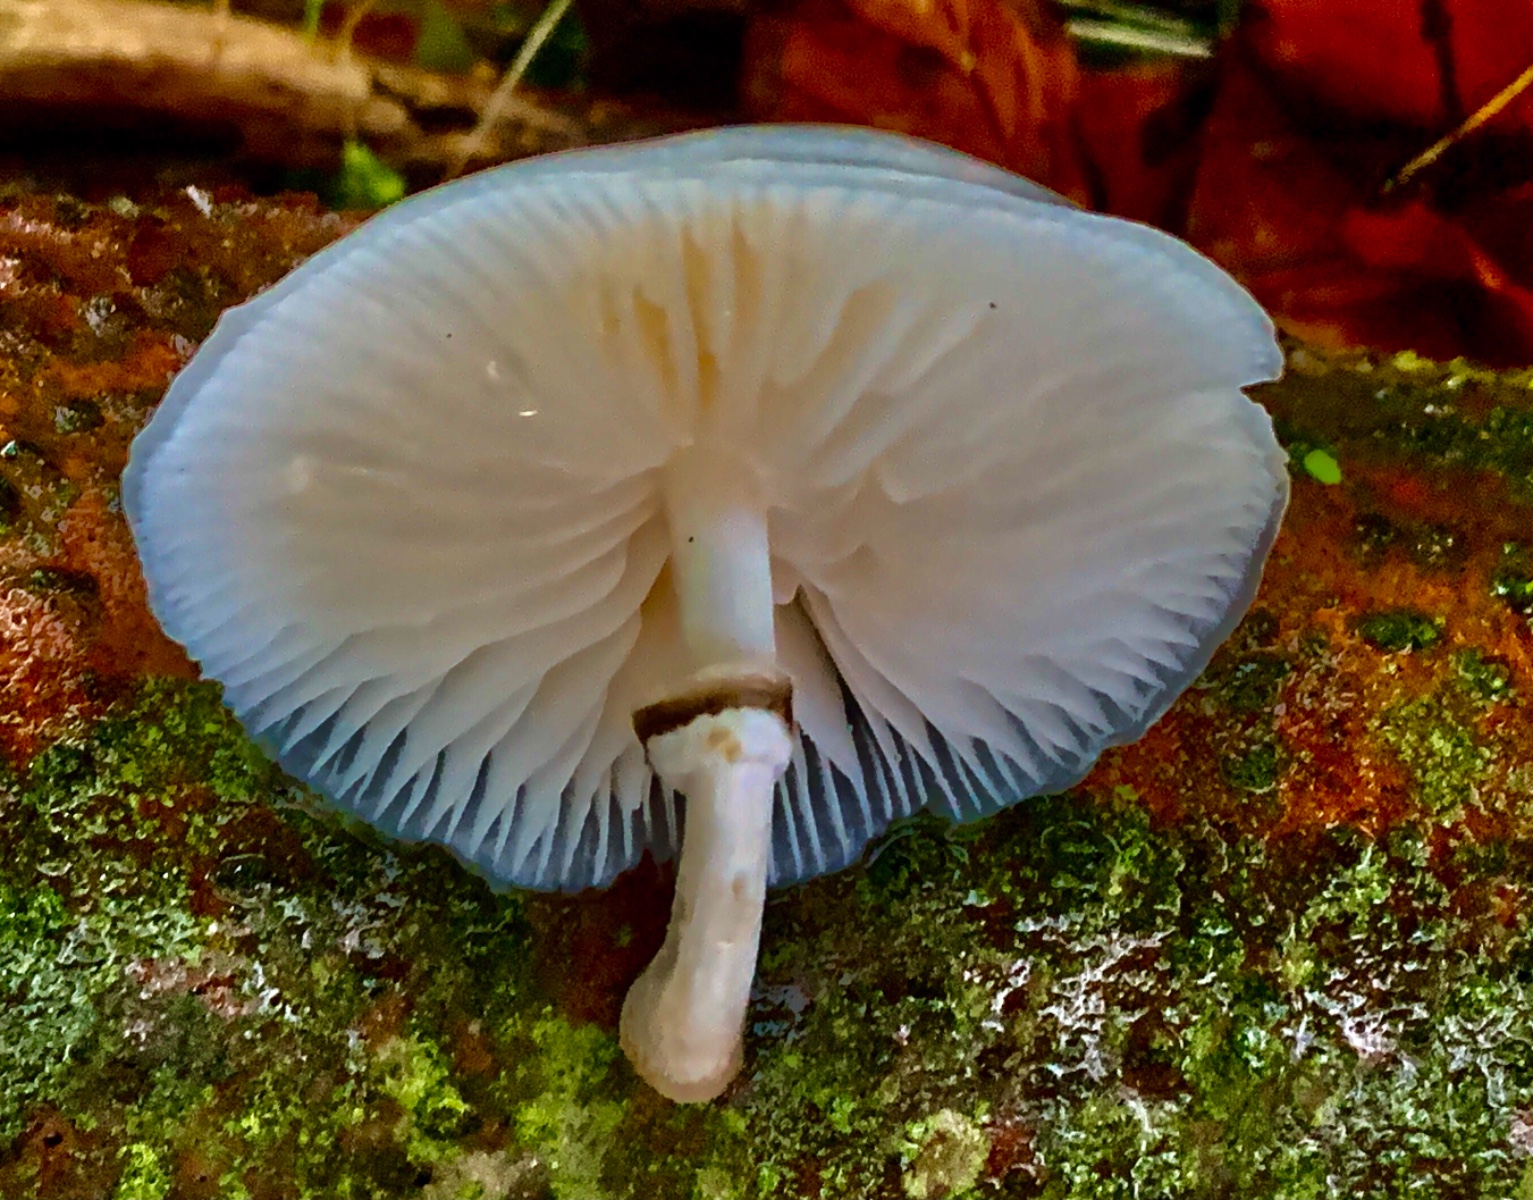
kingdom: Fungi
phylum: Basidiomycota
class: Agaricomycetes
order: Agaricales
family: Physalacriaceae
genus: Mucidula
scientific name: Mucidula mucida
